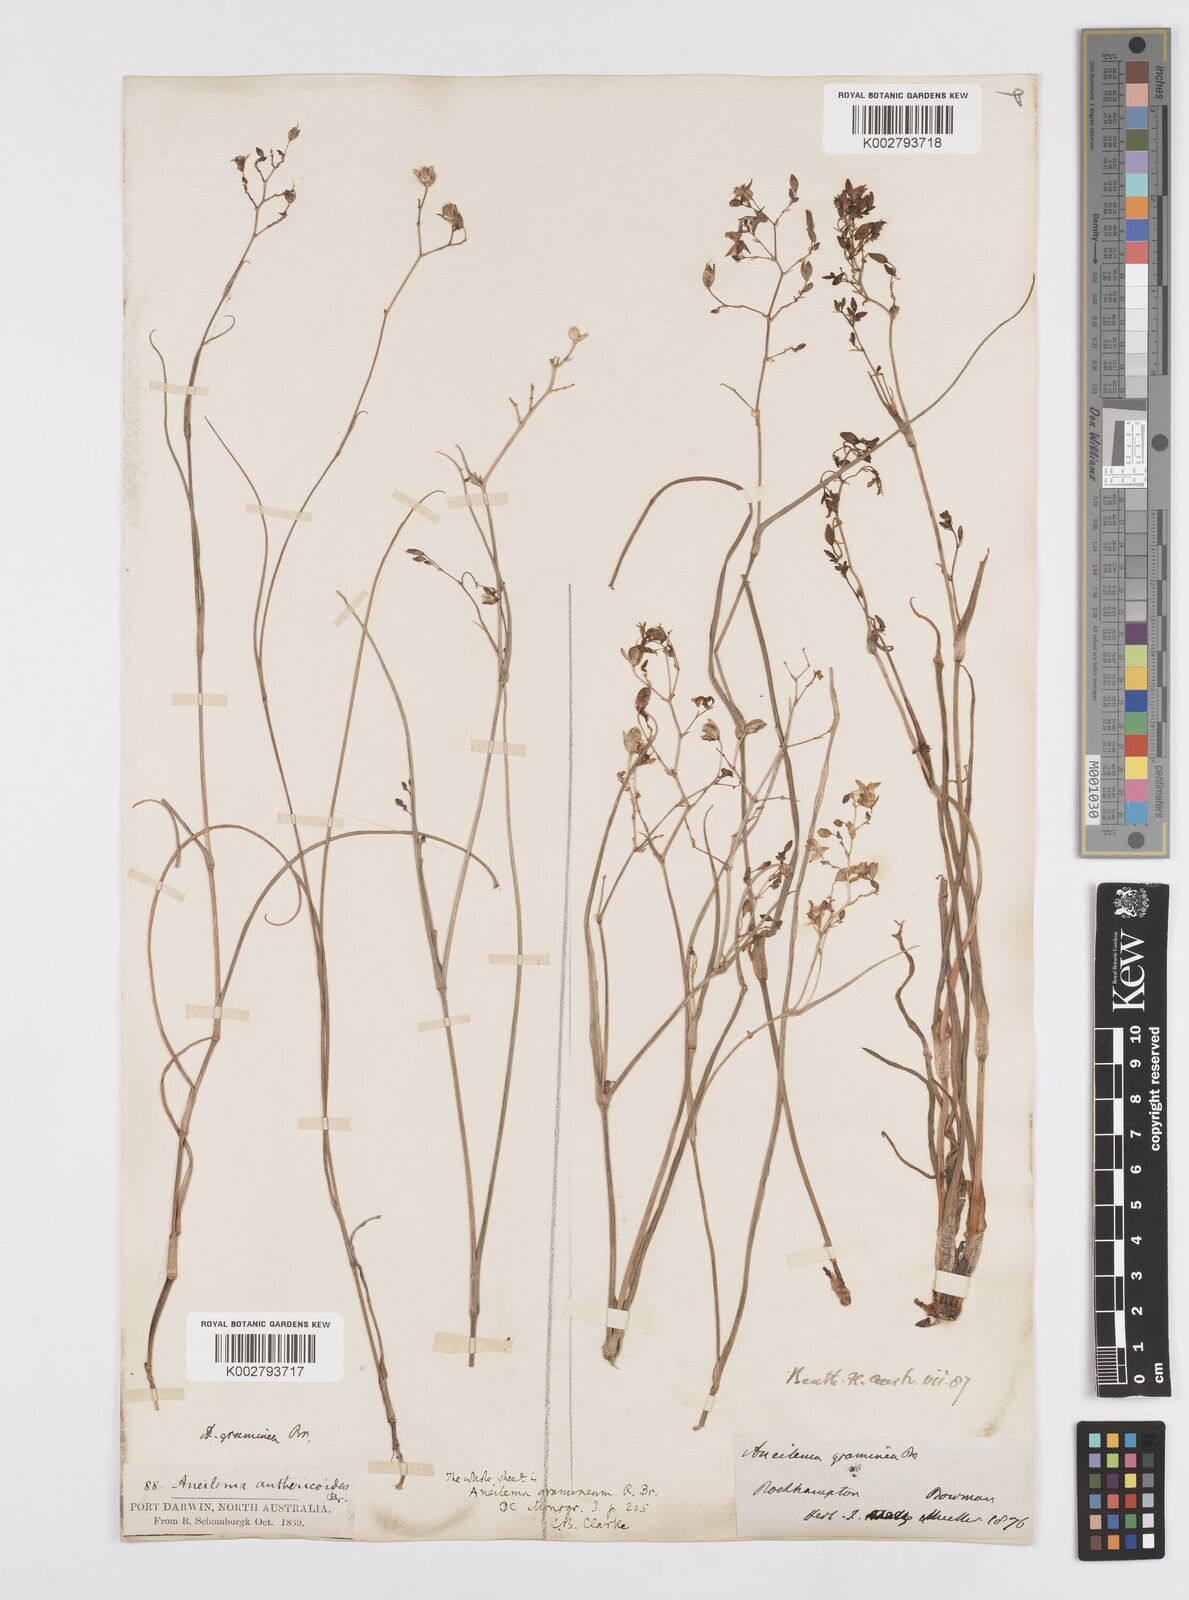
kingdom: Plantae
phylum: Tracheophyta
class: Liliopsida
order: Commelinales
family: Commelinaceae
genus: Murdannia
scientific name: Murdannia graminea
